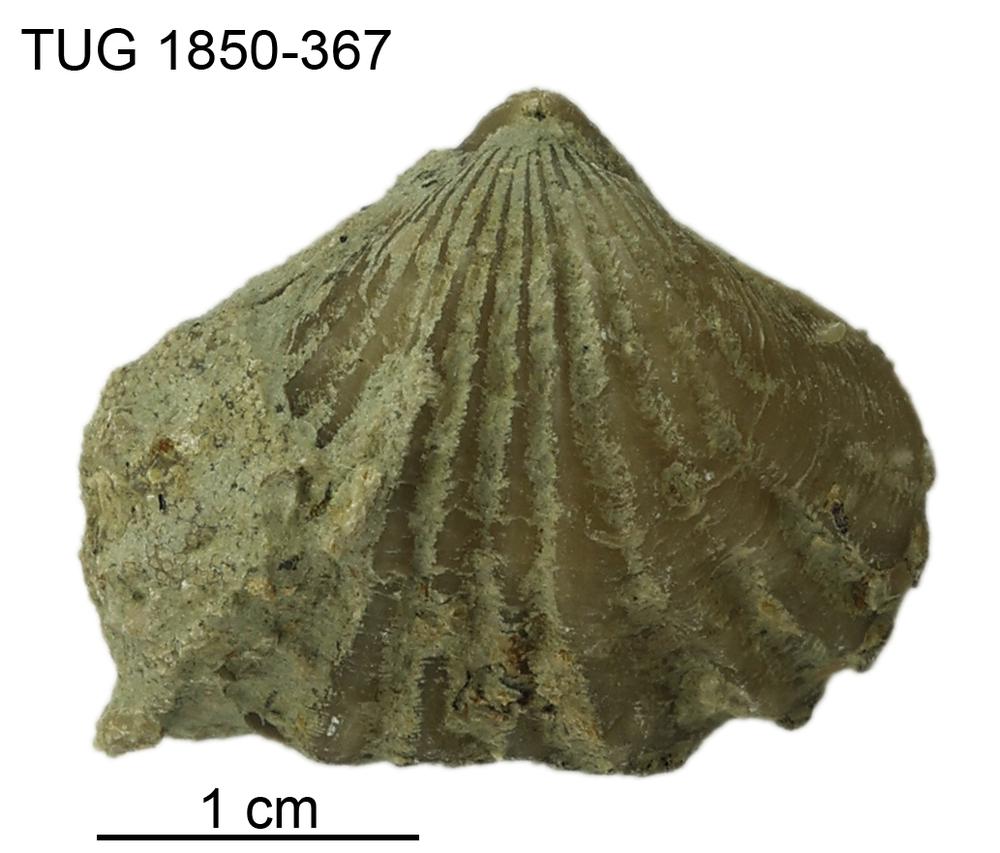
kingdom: Animalia
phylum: Brachiopoda
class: Rhynchonellata
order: Rhynchonellida
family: Rhynchotrematidae
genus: Rhynchotreta
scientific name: Rhynchotreta
